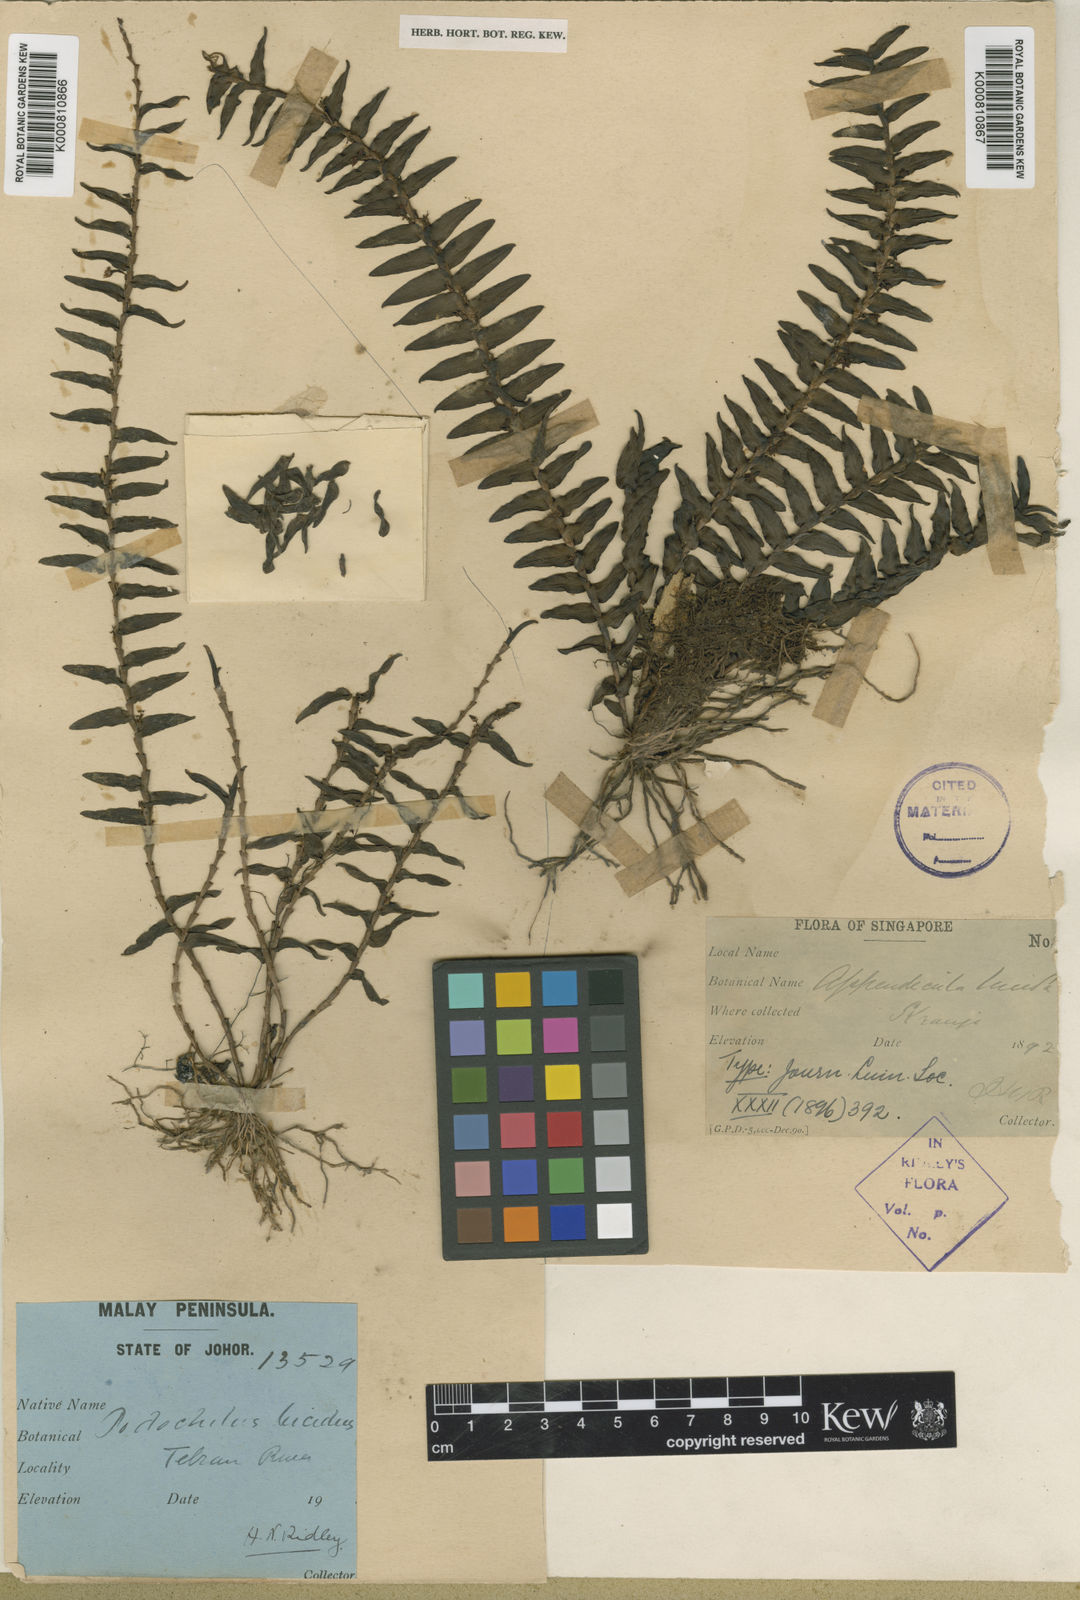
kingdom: Plantae
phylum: Tracheophyta
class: Liliopsida
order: Asparagales
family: Orchidaceae
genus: Appendicula
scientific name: Appendicula lucida
